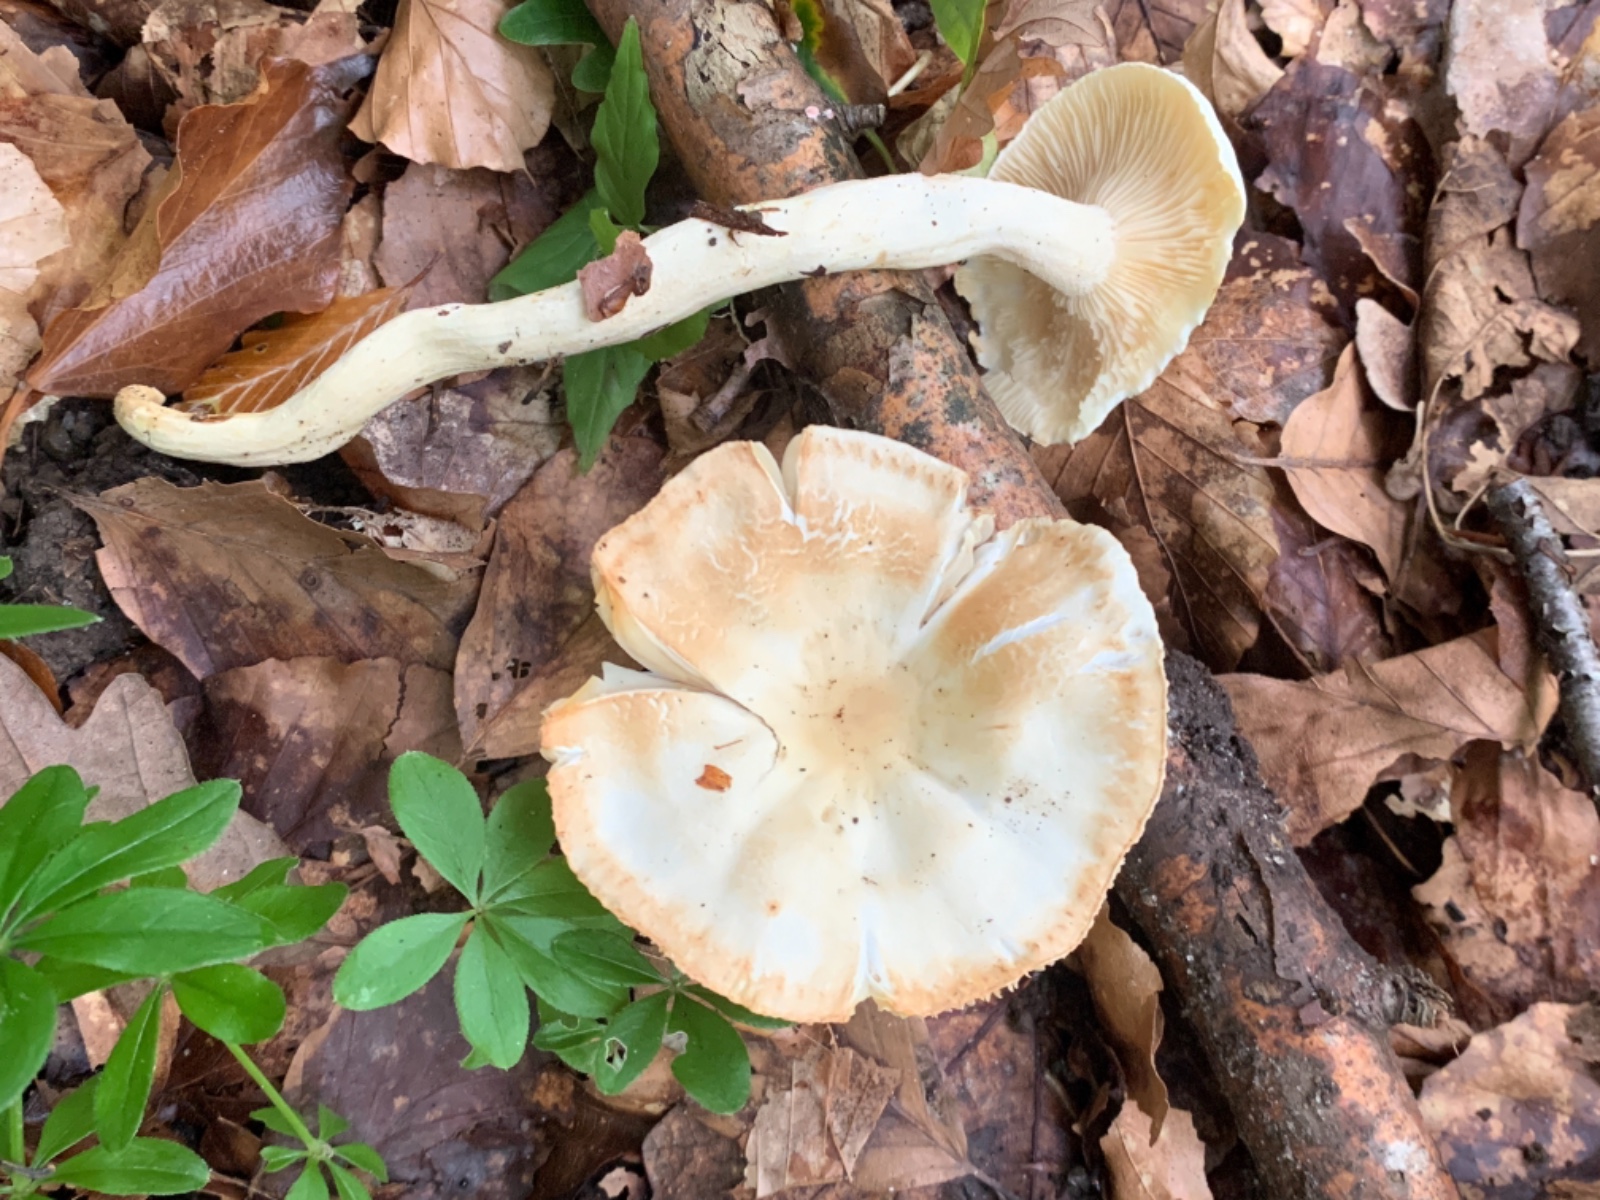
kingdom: Fungi
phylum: Basidiomycota
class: Agaricomycetes
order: Agaricales
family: Hygrophoraceae
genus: Hygrophorus
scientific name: Hygrophorus discoxanthus
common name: ildelugtende sneglehat
